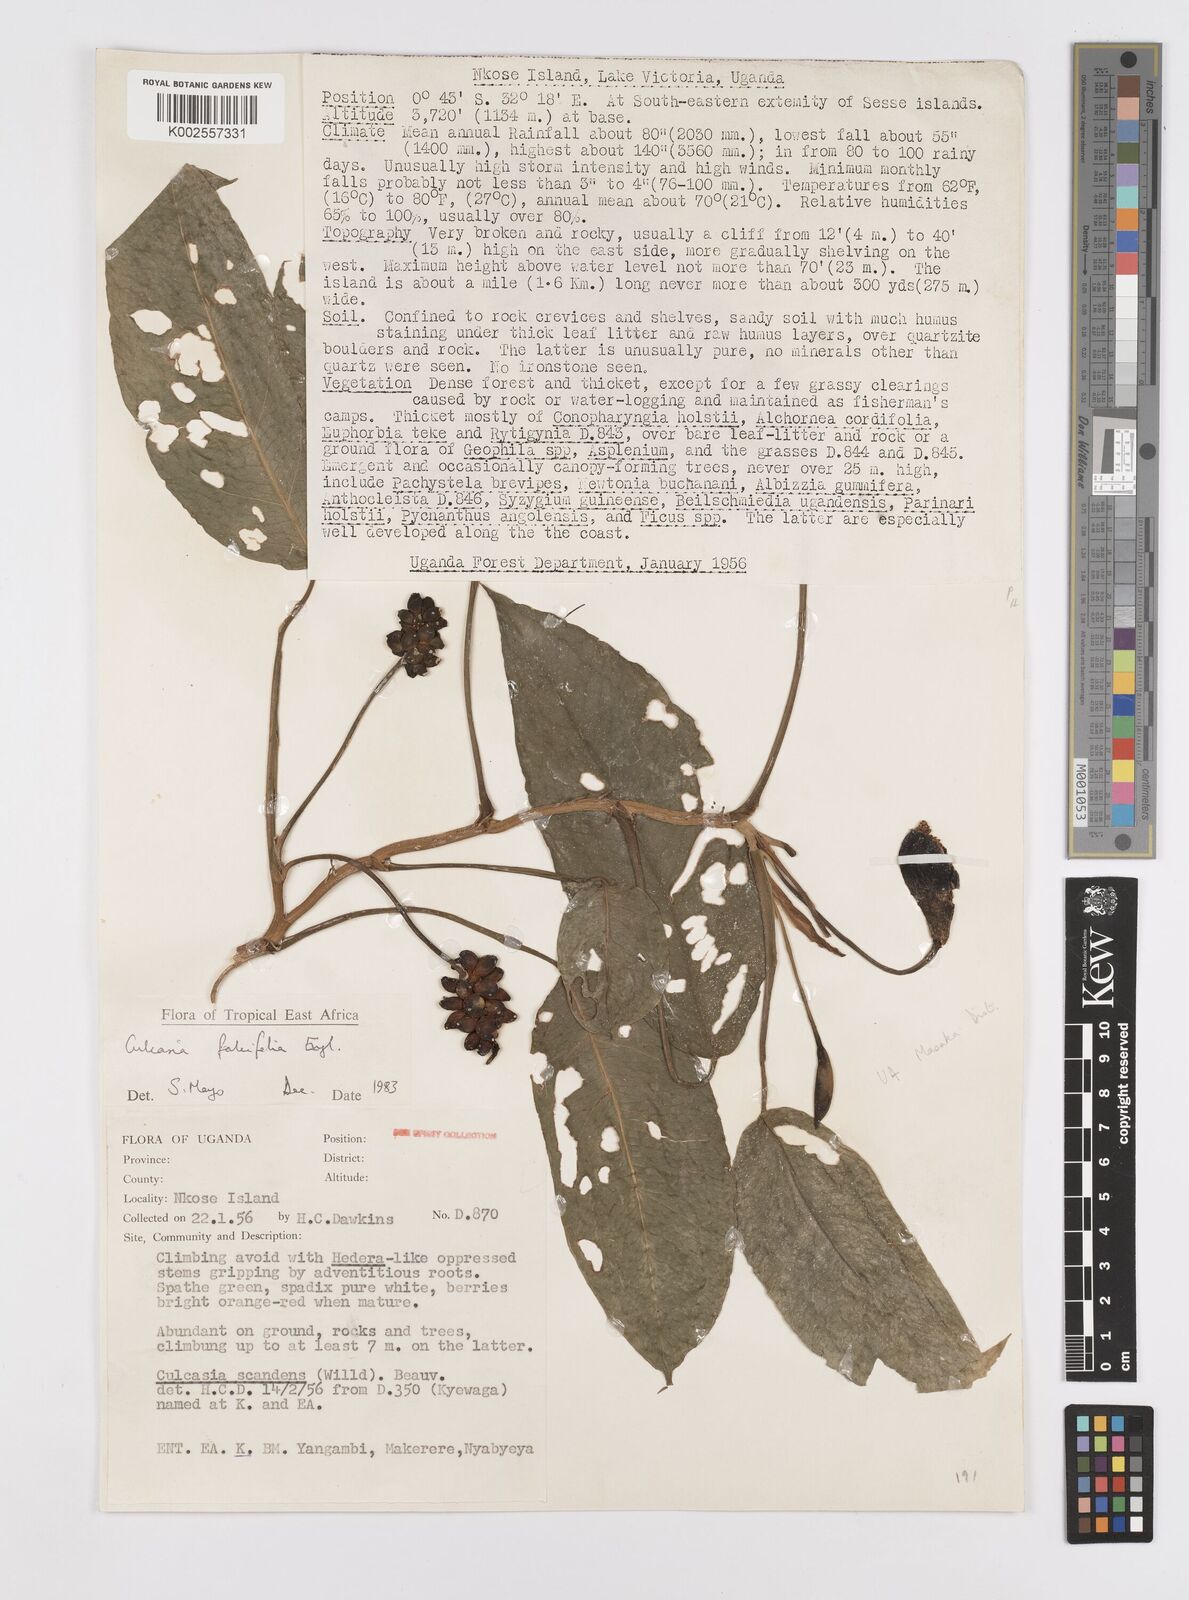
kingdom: Plantae
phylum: Tracheophyta
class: Liliopsida
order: Alismatales
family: Araceae
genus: Culcasia
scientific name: Culcasia falcifolia
